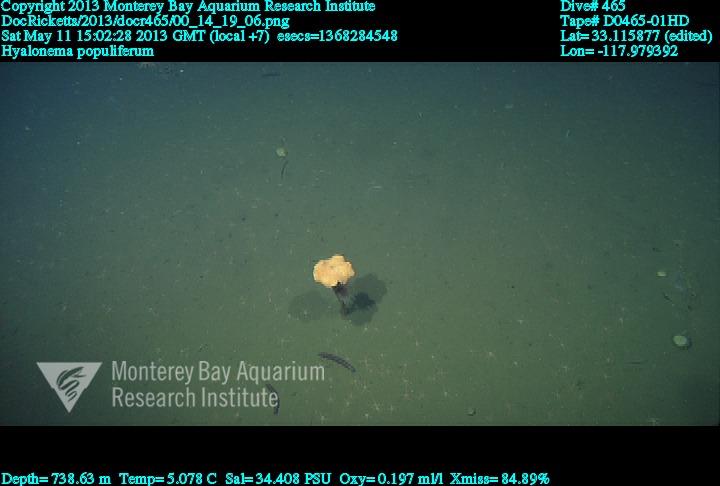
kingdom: Animalia
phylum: Porifera
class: Hexactinellida
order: Amphidiscosida
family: Hyalonematidae
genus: Hyalonema
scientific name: Hyalonema populiferum
